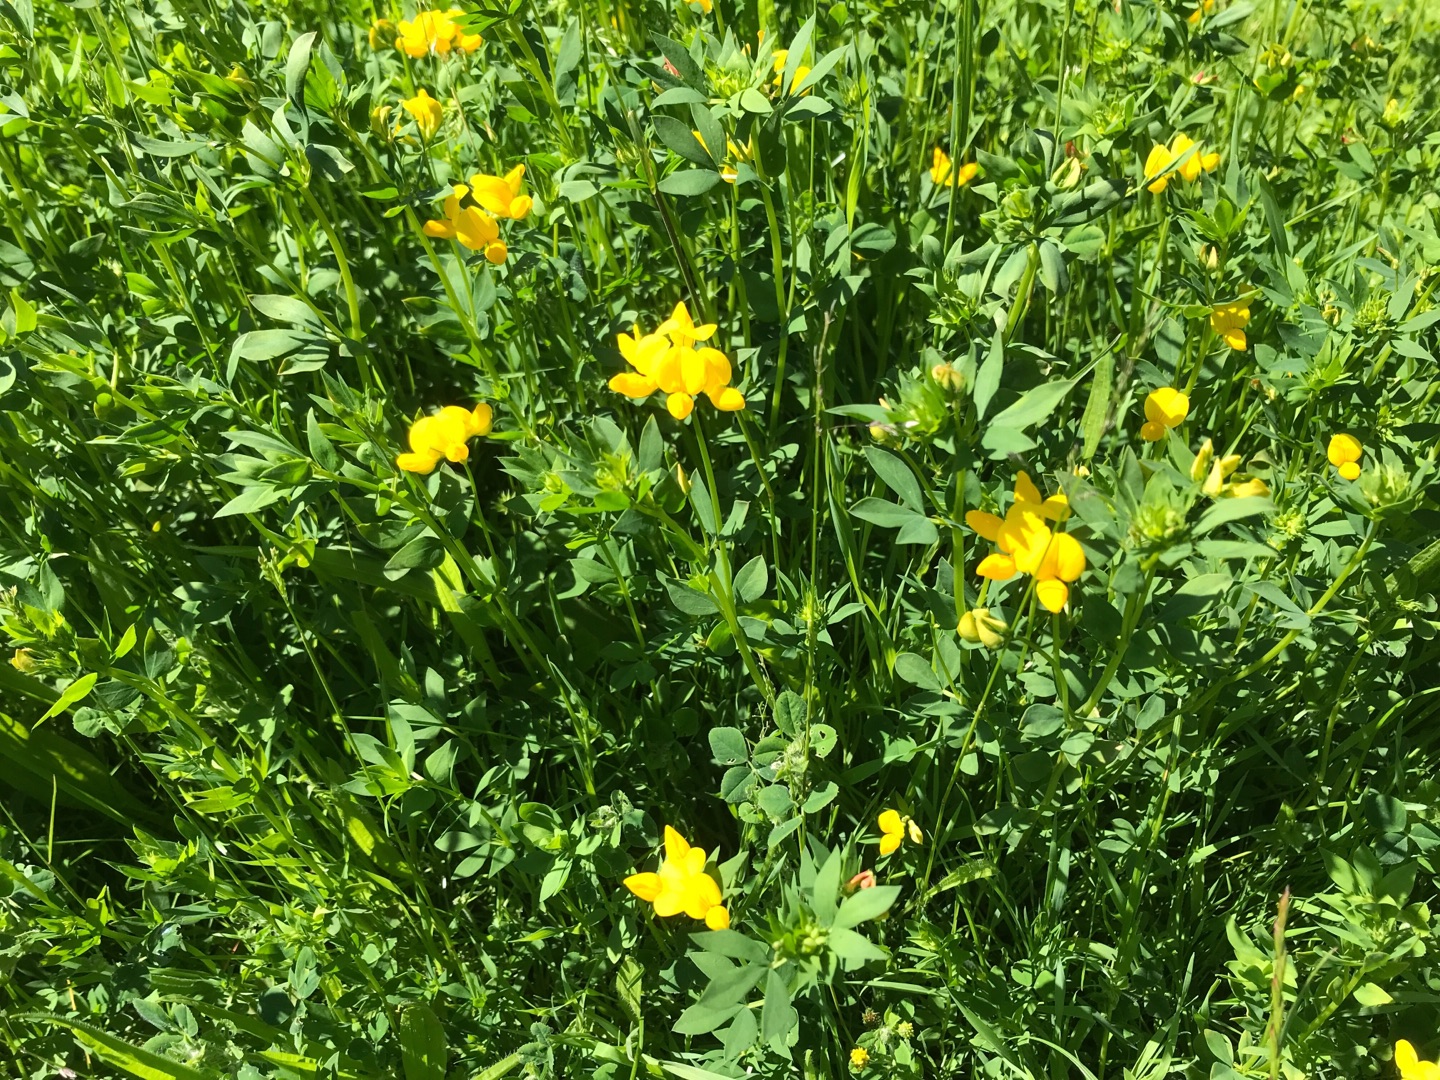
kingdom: Plantae
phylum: Tracheophyta
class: Magnoliopsida
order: Fabales
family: Fabaceae
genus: Lotus
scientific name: Lotus corniculatus
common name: Almindelig kællingetand
